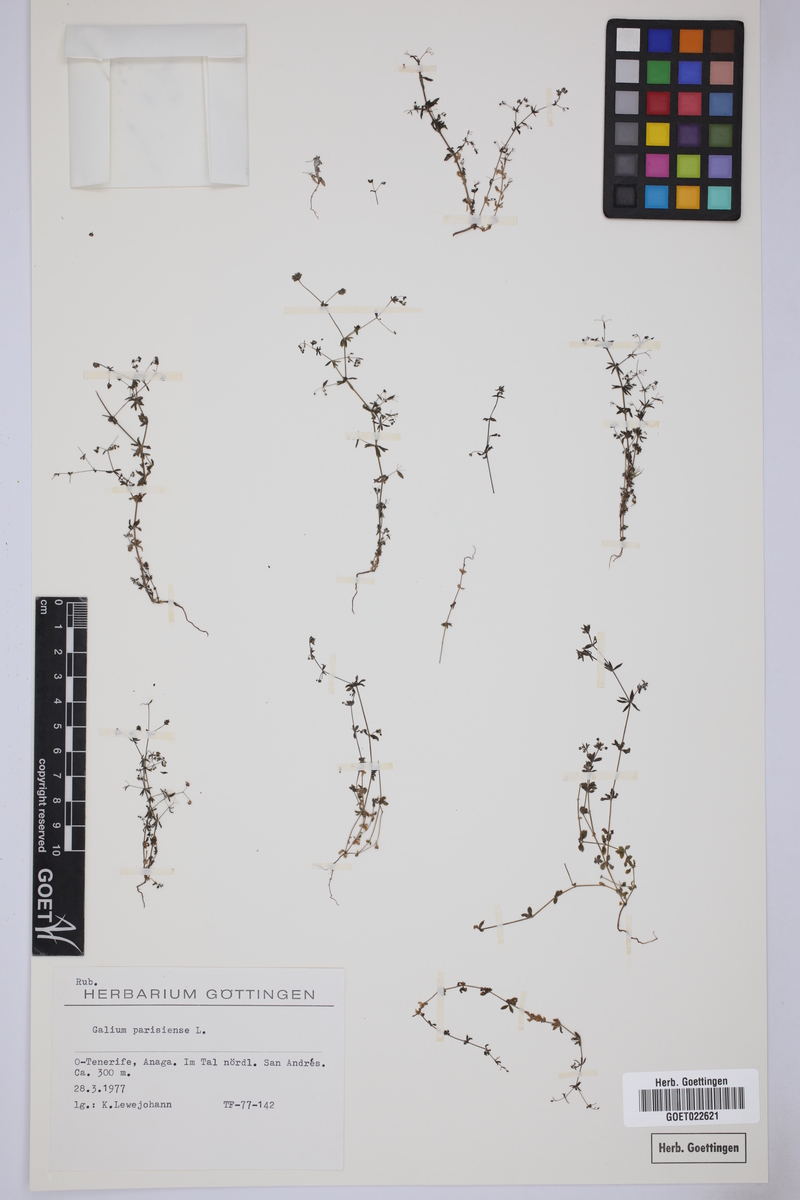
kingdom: Plantae
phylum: Tracheophyta
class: Magnoliopsida
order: Gentianales
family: Rubiaceae
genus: Galium
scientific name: Galium parisiense
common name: Wall bedstraw
